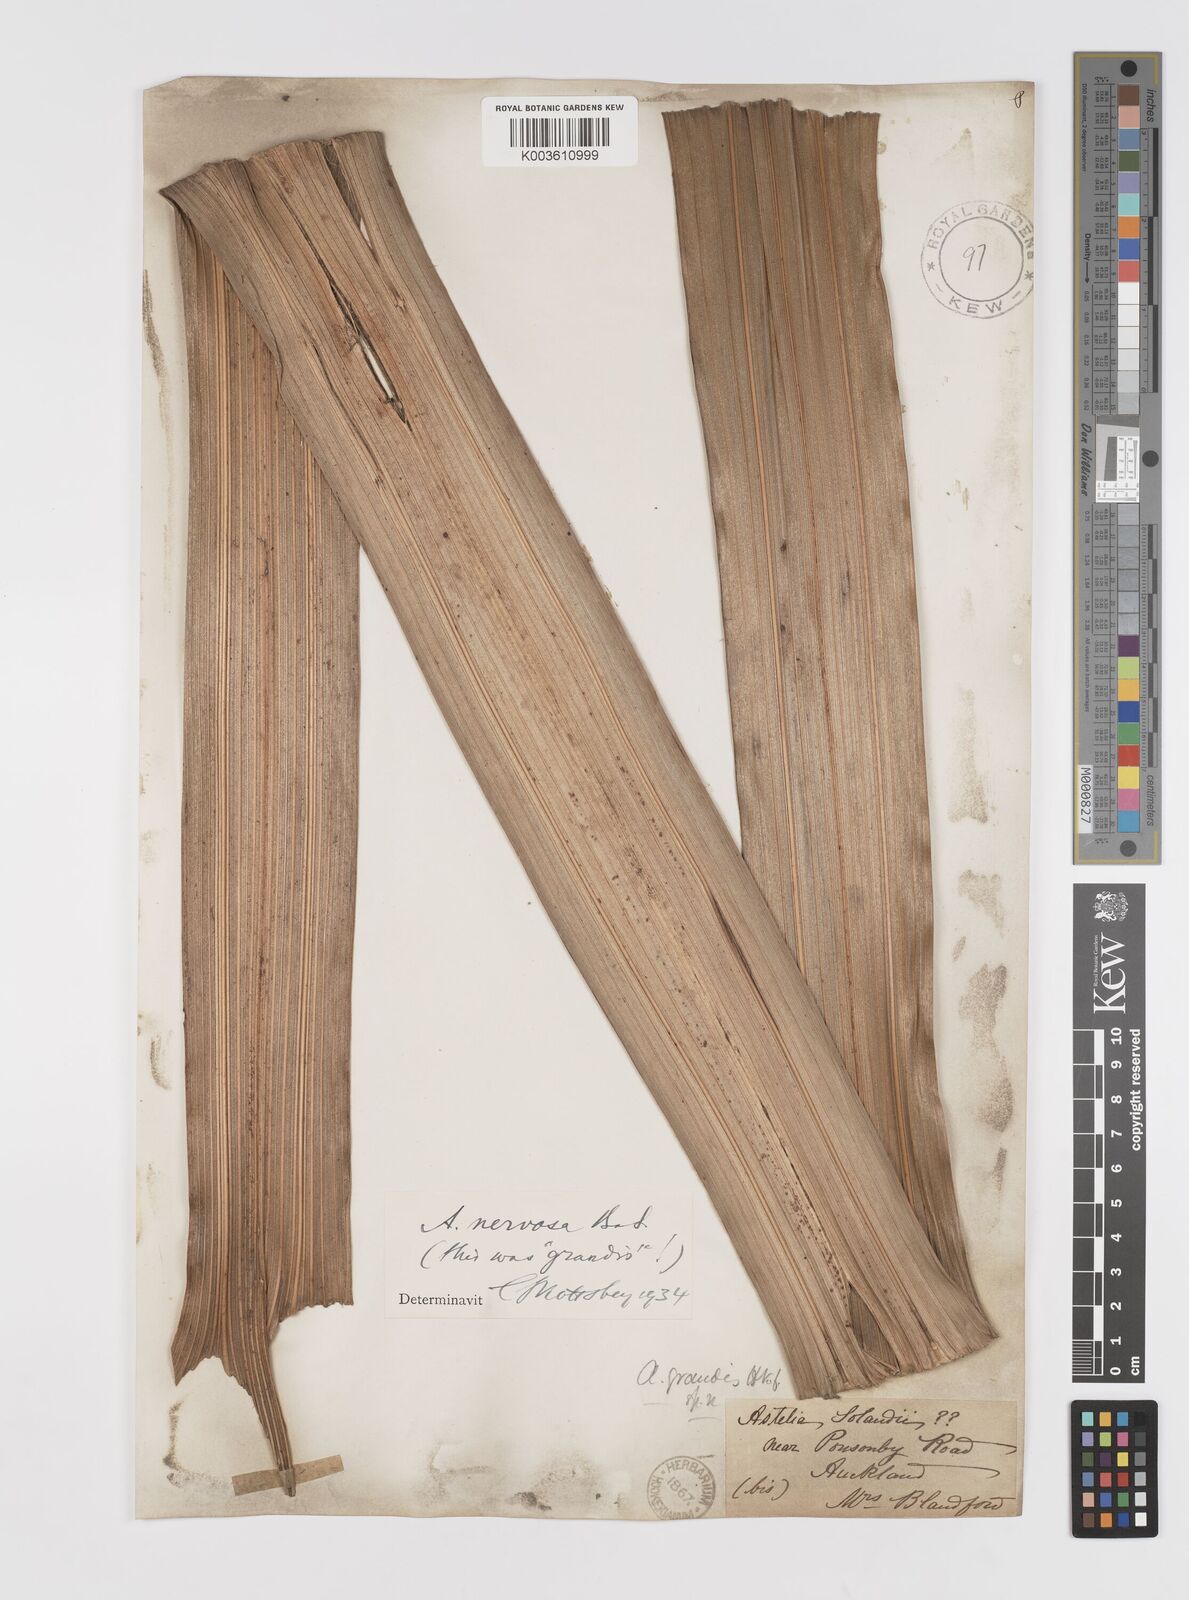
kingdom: Plantae
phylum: Tracheophyta
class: Liliopsida
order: Asparagales
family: Asteliaceae
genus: Astelia
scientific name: Astelia nervosa
